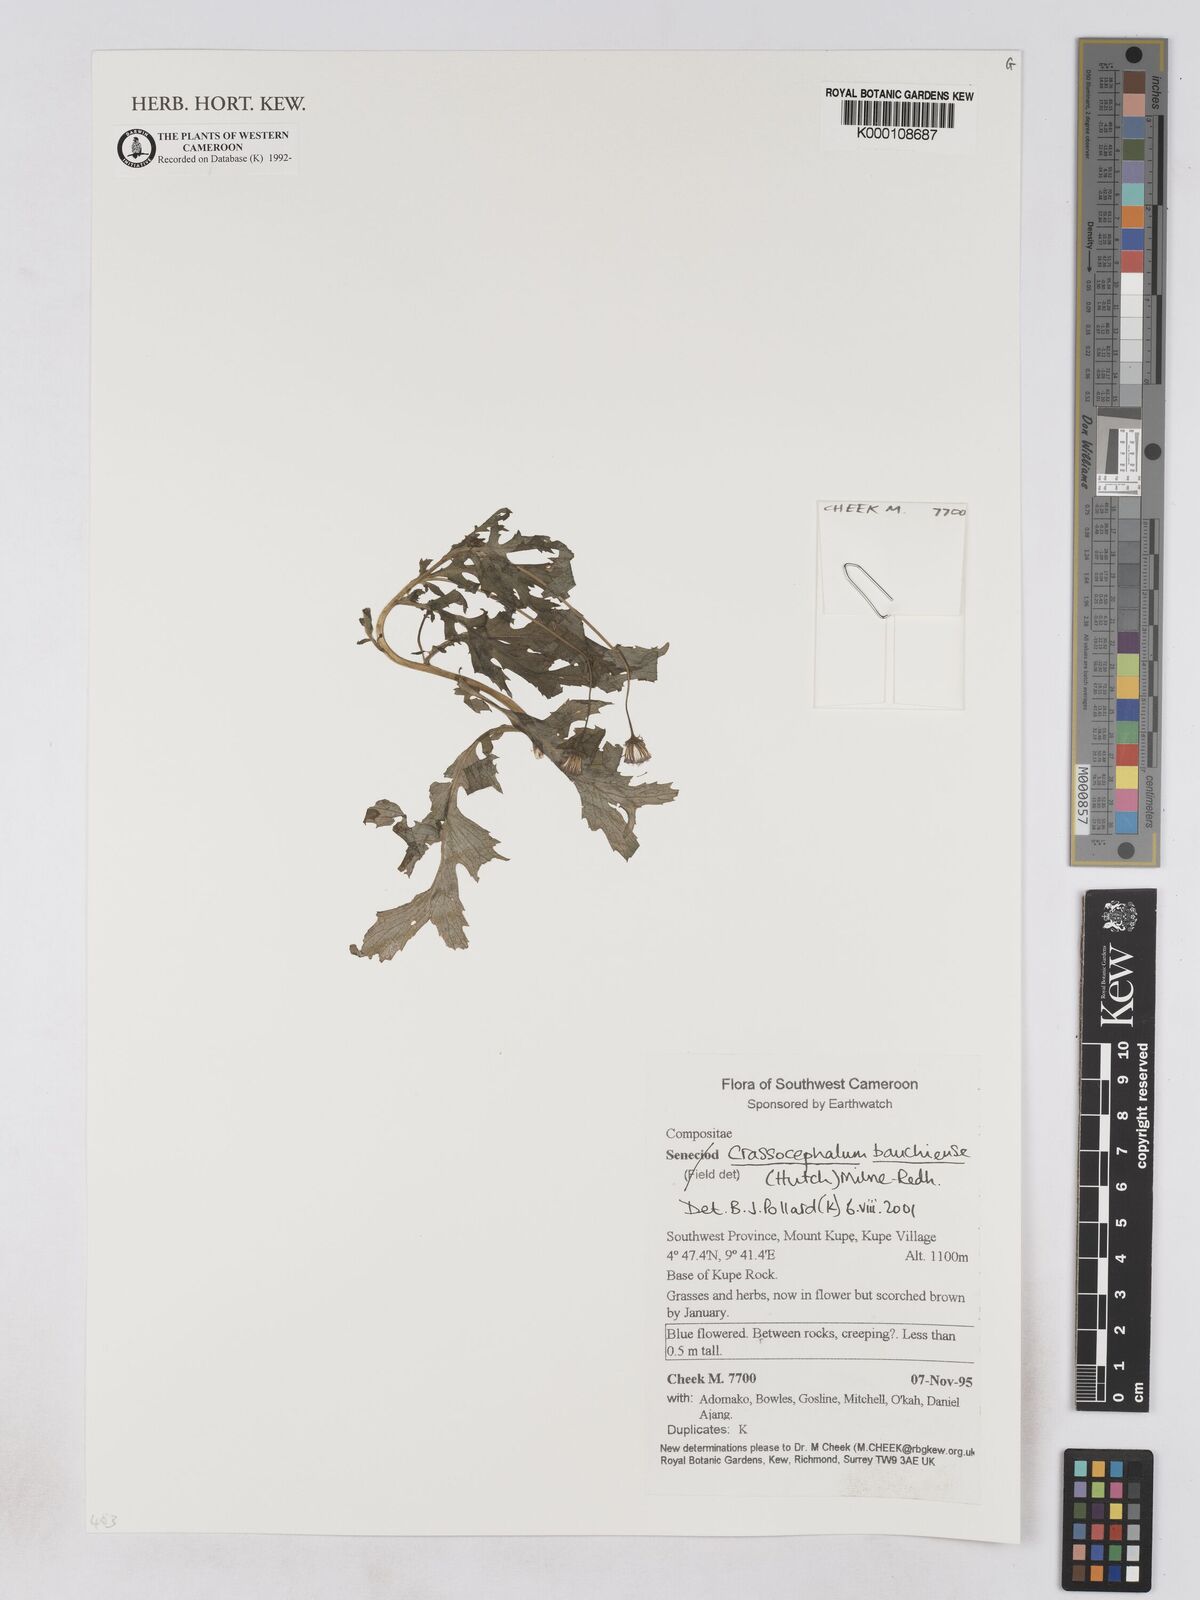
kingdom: Plantae
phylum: Tracheophyta
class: Magnoliopsida
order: Asterales
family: Asteraceae
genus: Crassocephalum
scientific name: Crassocephalum bauchiense
